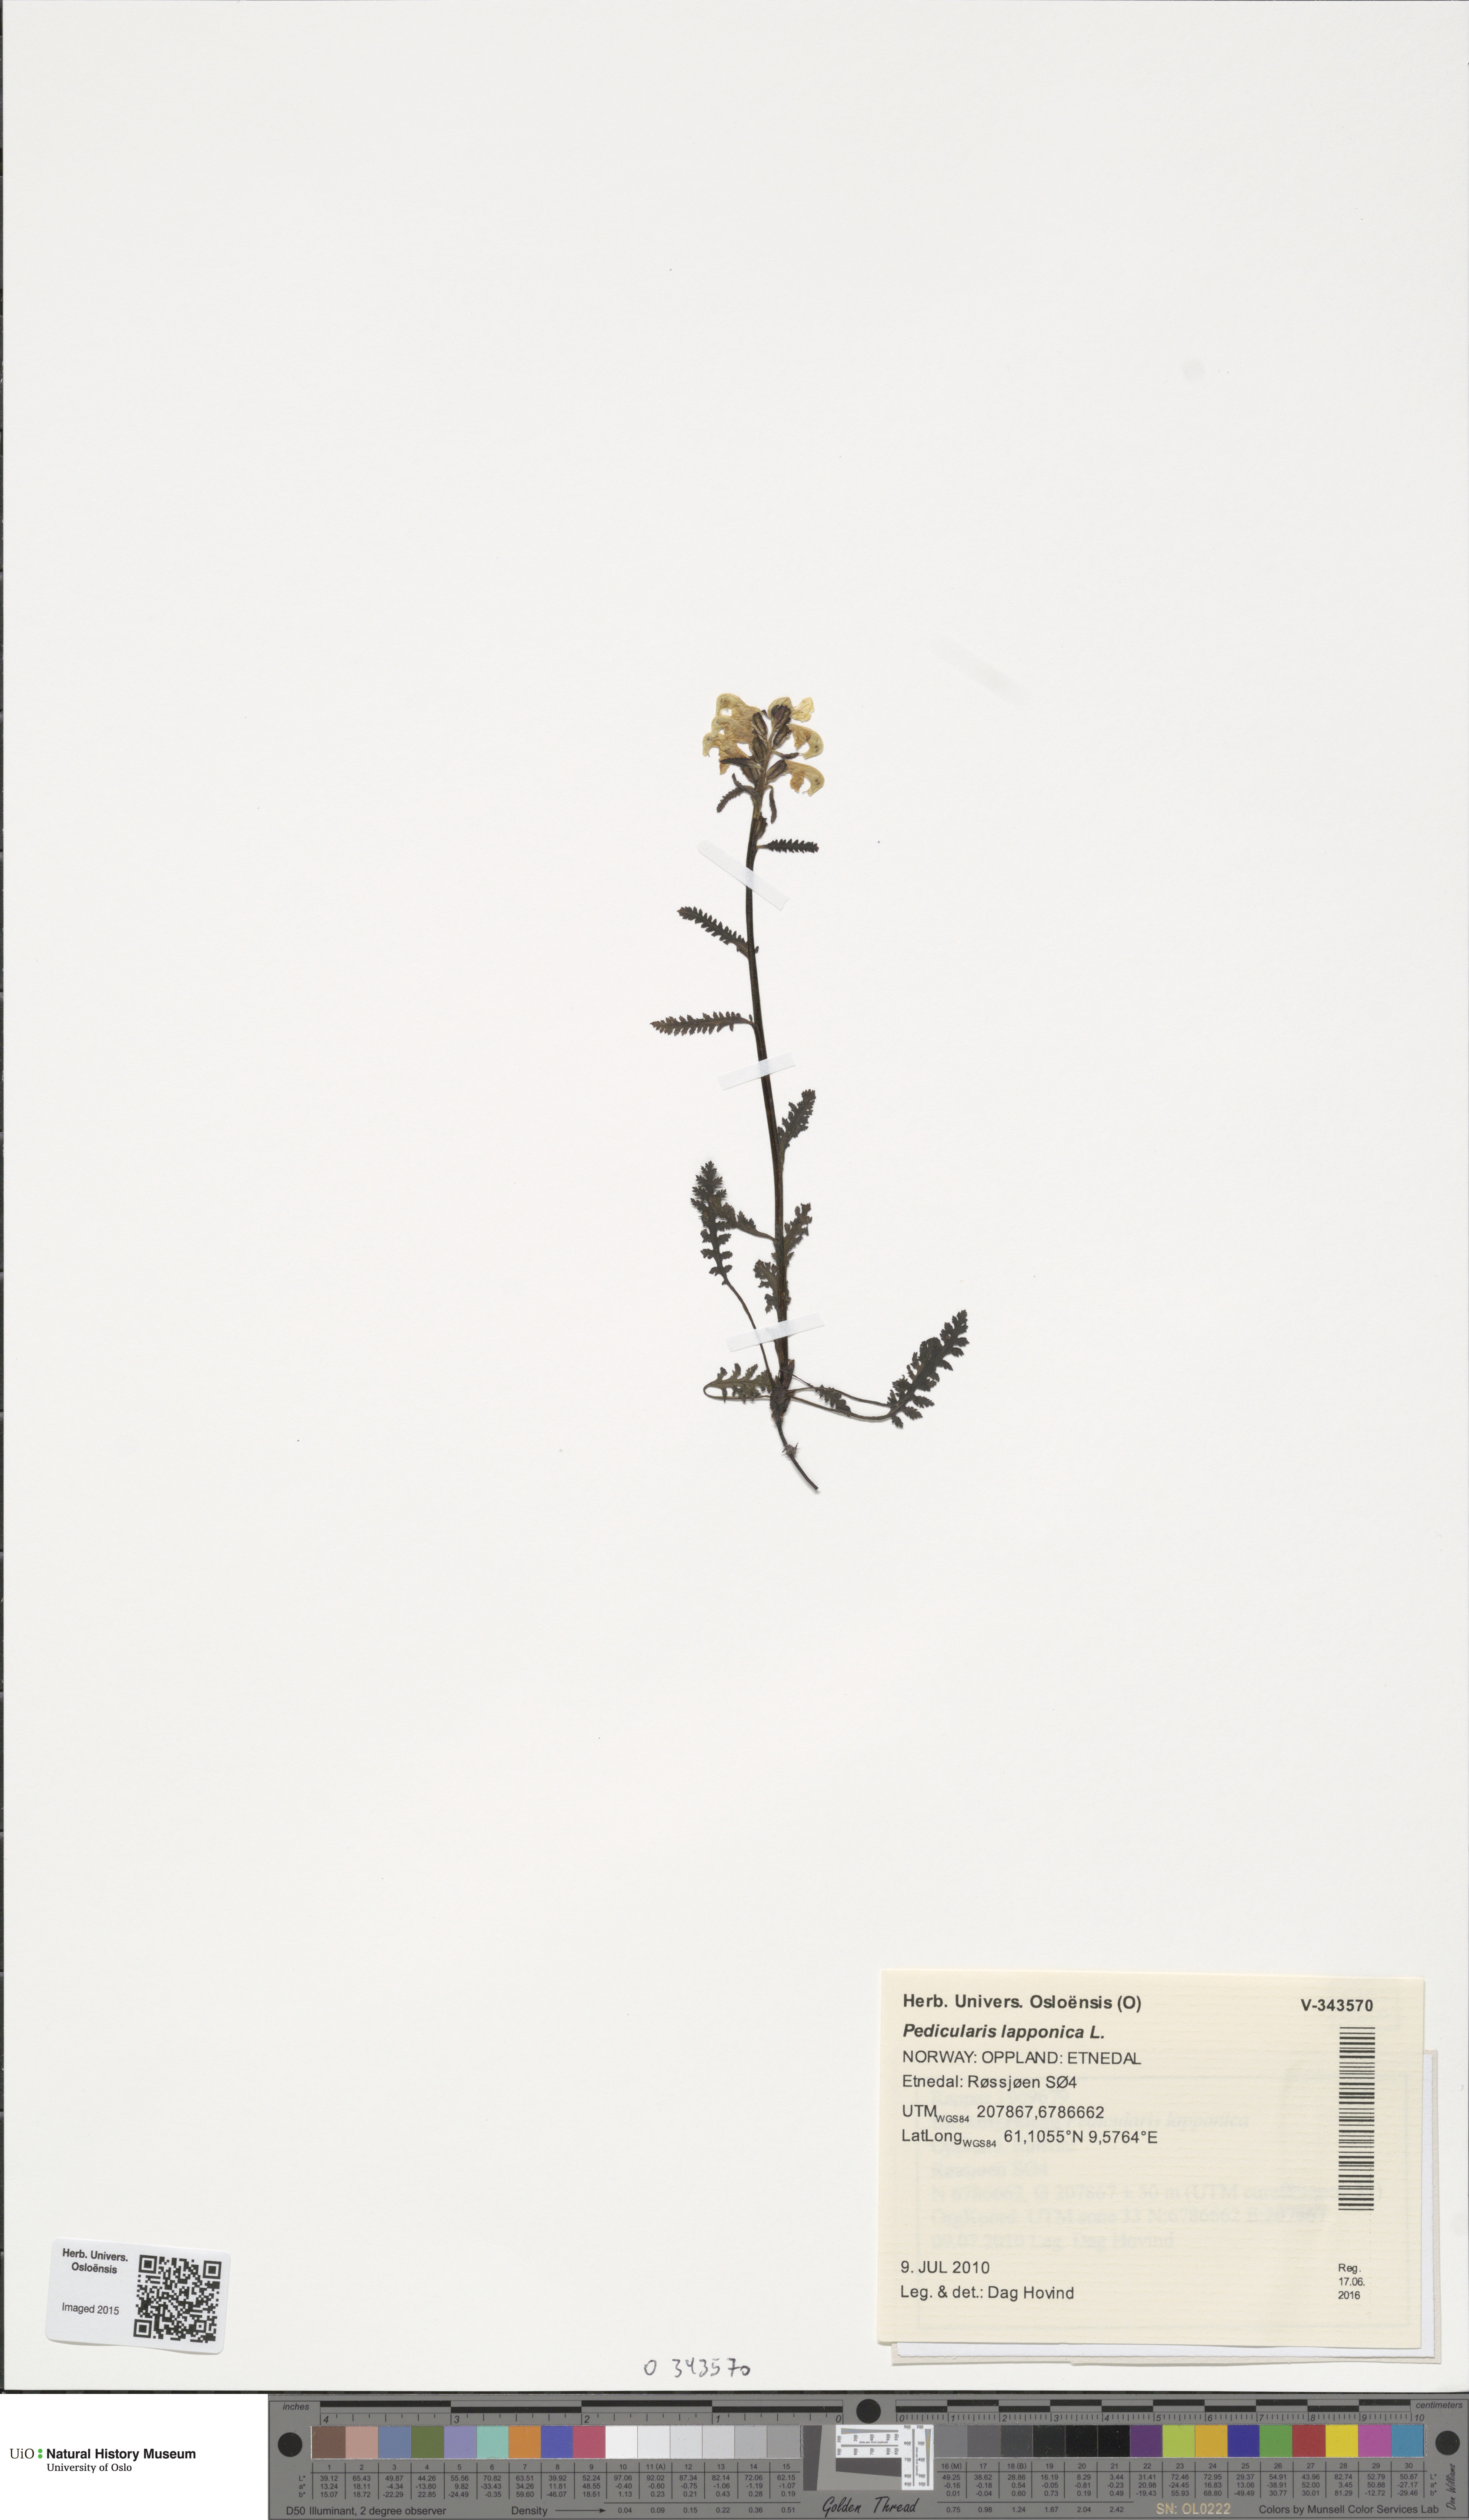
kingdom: Plantae
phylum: Tracheophyta
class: Magnoliopsida
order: Lamiales
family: Orobanchaceae
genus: Pedicularis
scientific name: Pedicularis lapponica
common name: Lapland lousewort
